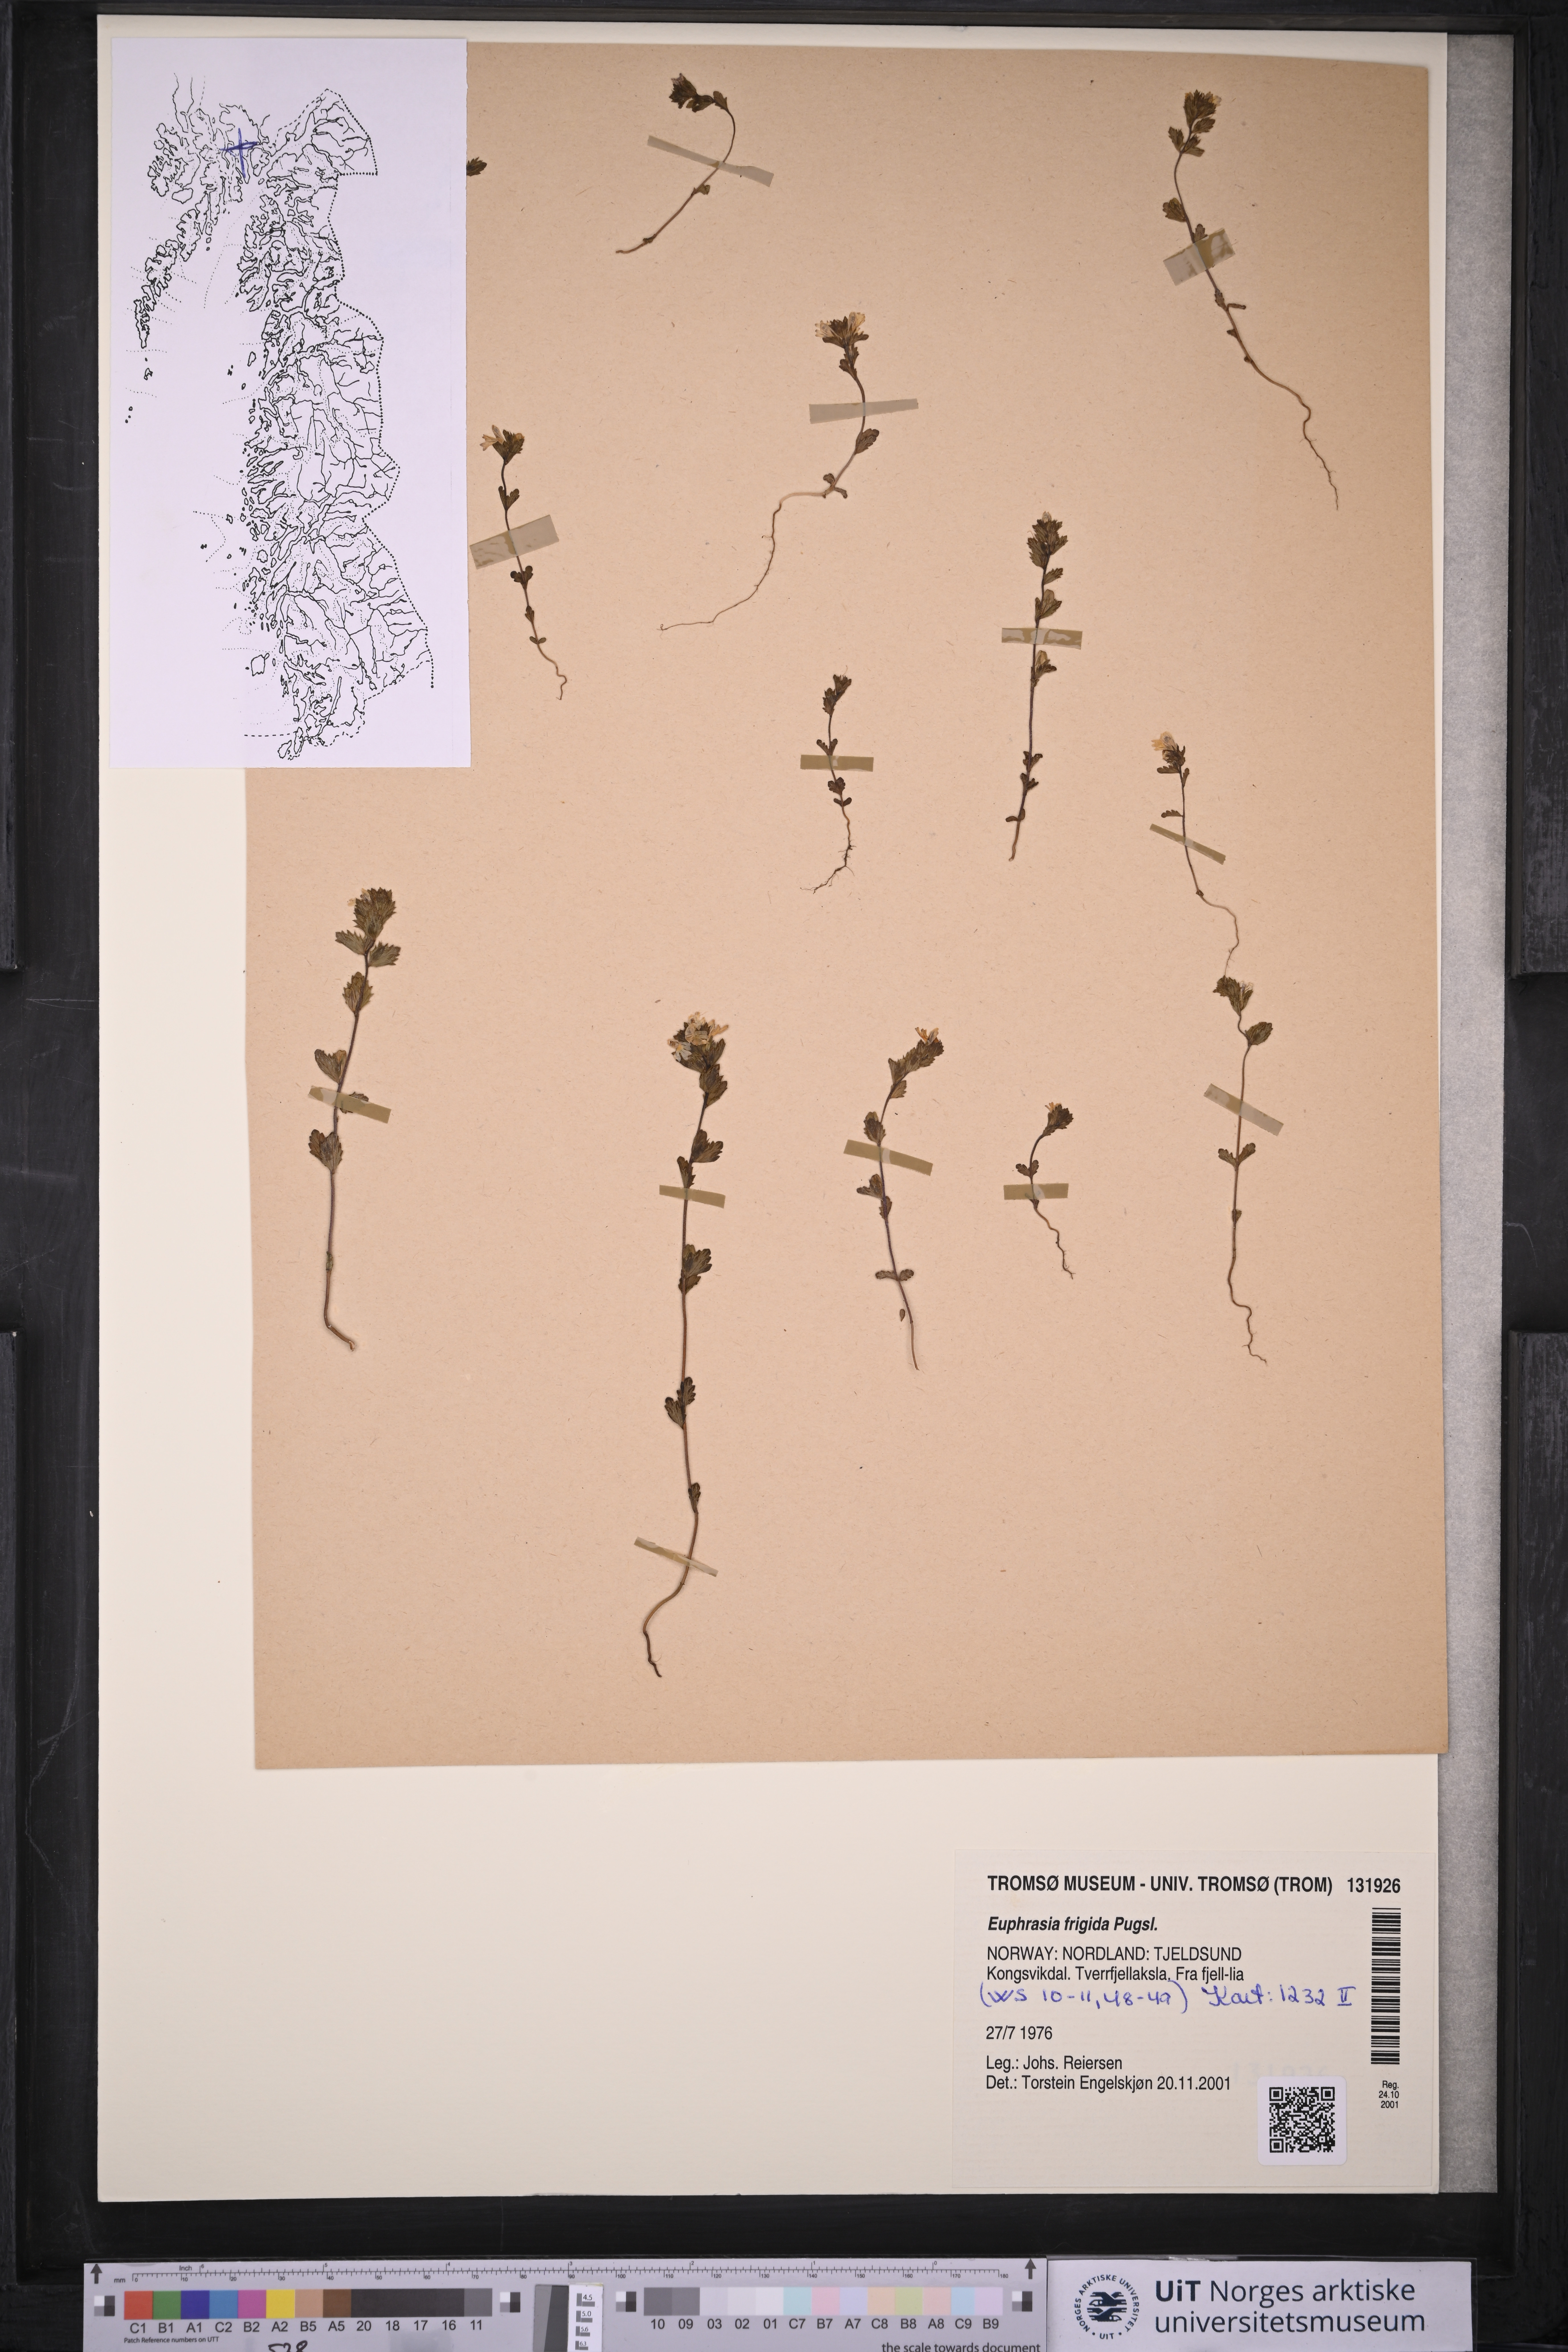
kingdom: Plantae
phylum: Tracheophyta
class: Magnoliopsida
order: Lamiales
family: Orobanchaceae
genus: Euphrasia
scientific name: Euphrasia frigida
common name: An eyebright
